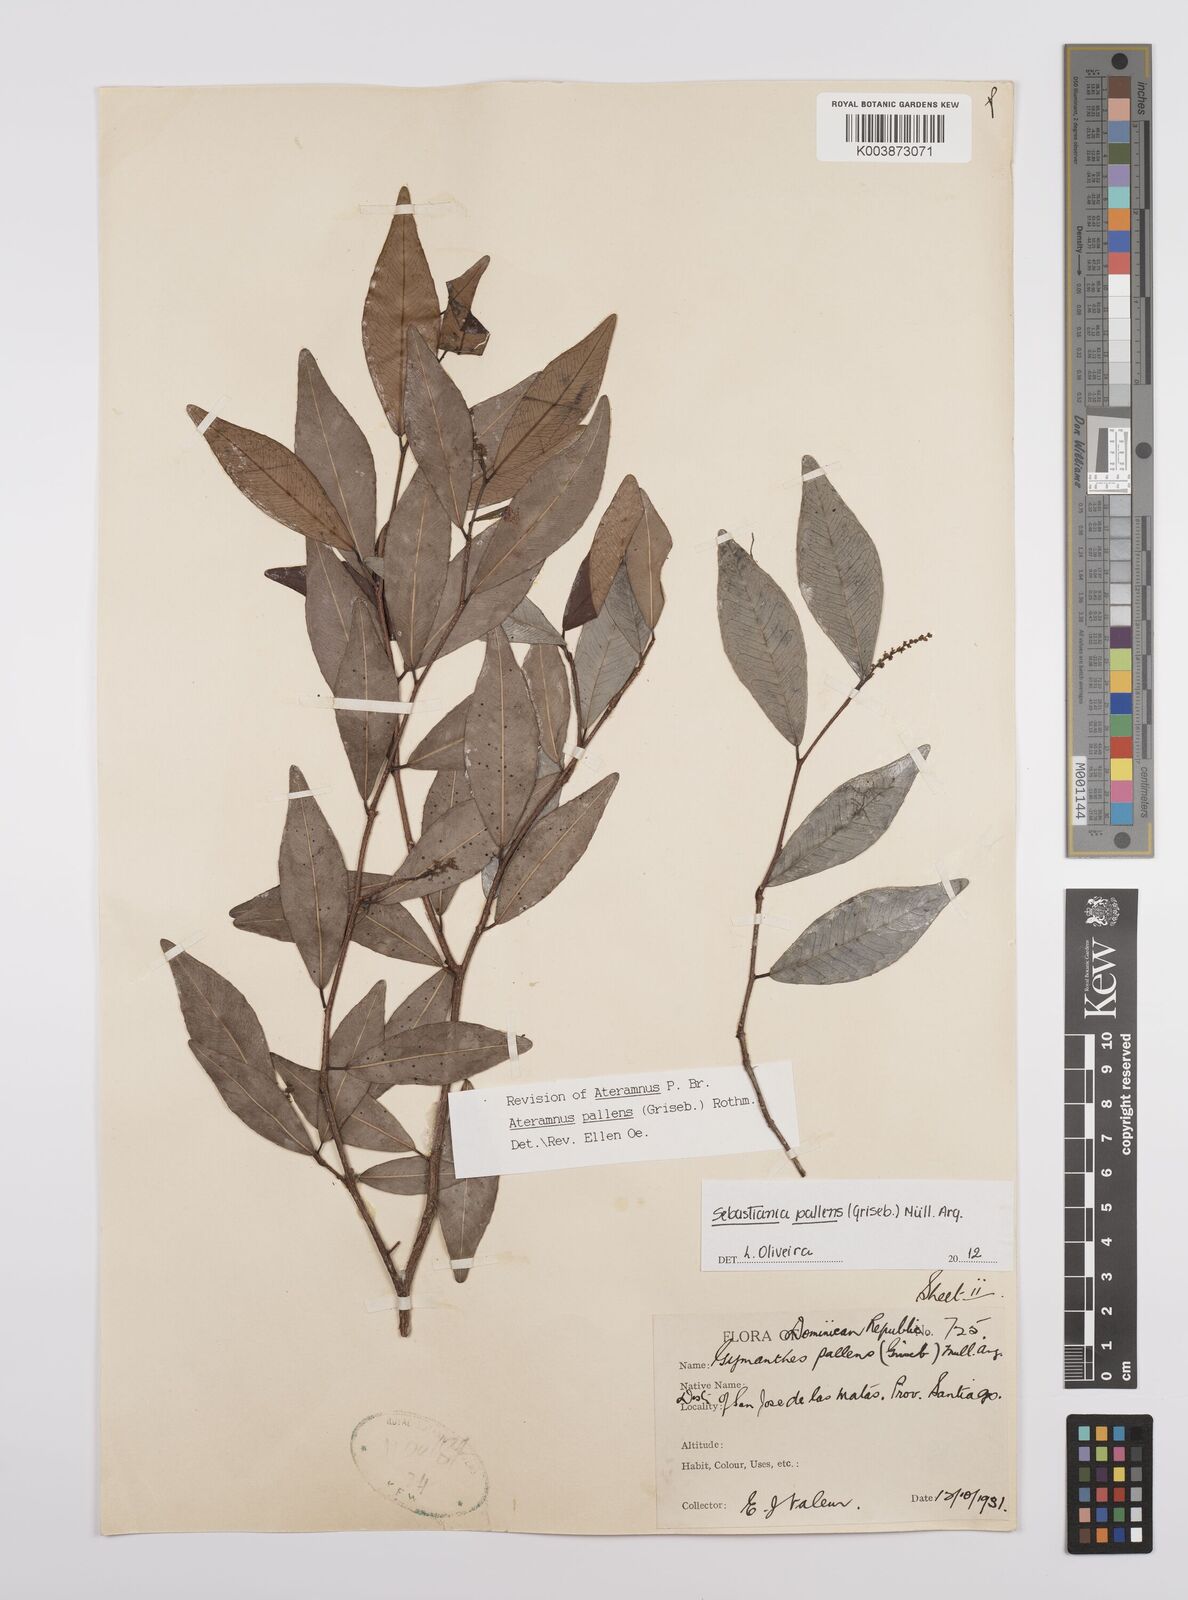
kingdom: Plantae
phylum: Tracheophyta
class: Magnoliopsida
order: Malpighiales
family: Euphorbiaceae
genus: Gymnanthes
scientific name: Gymnanthes pallens
